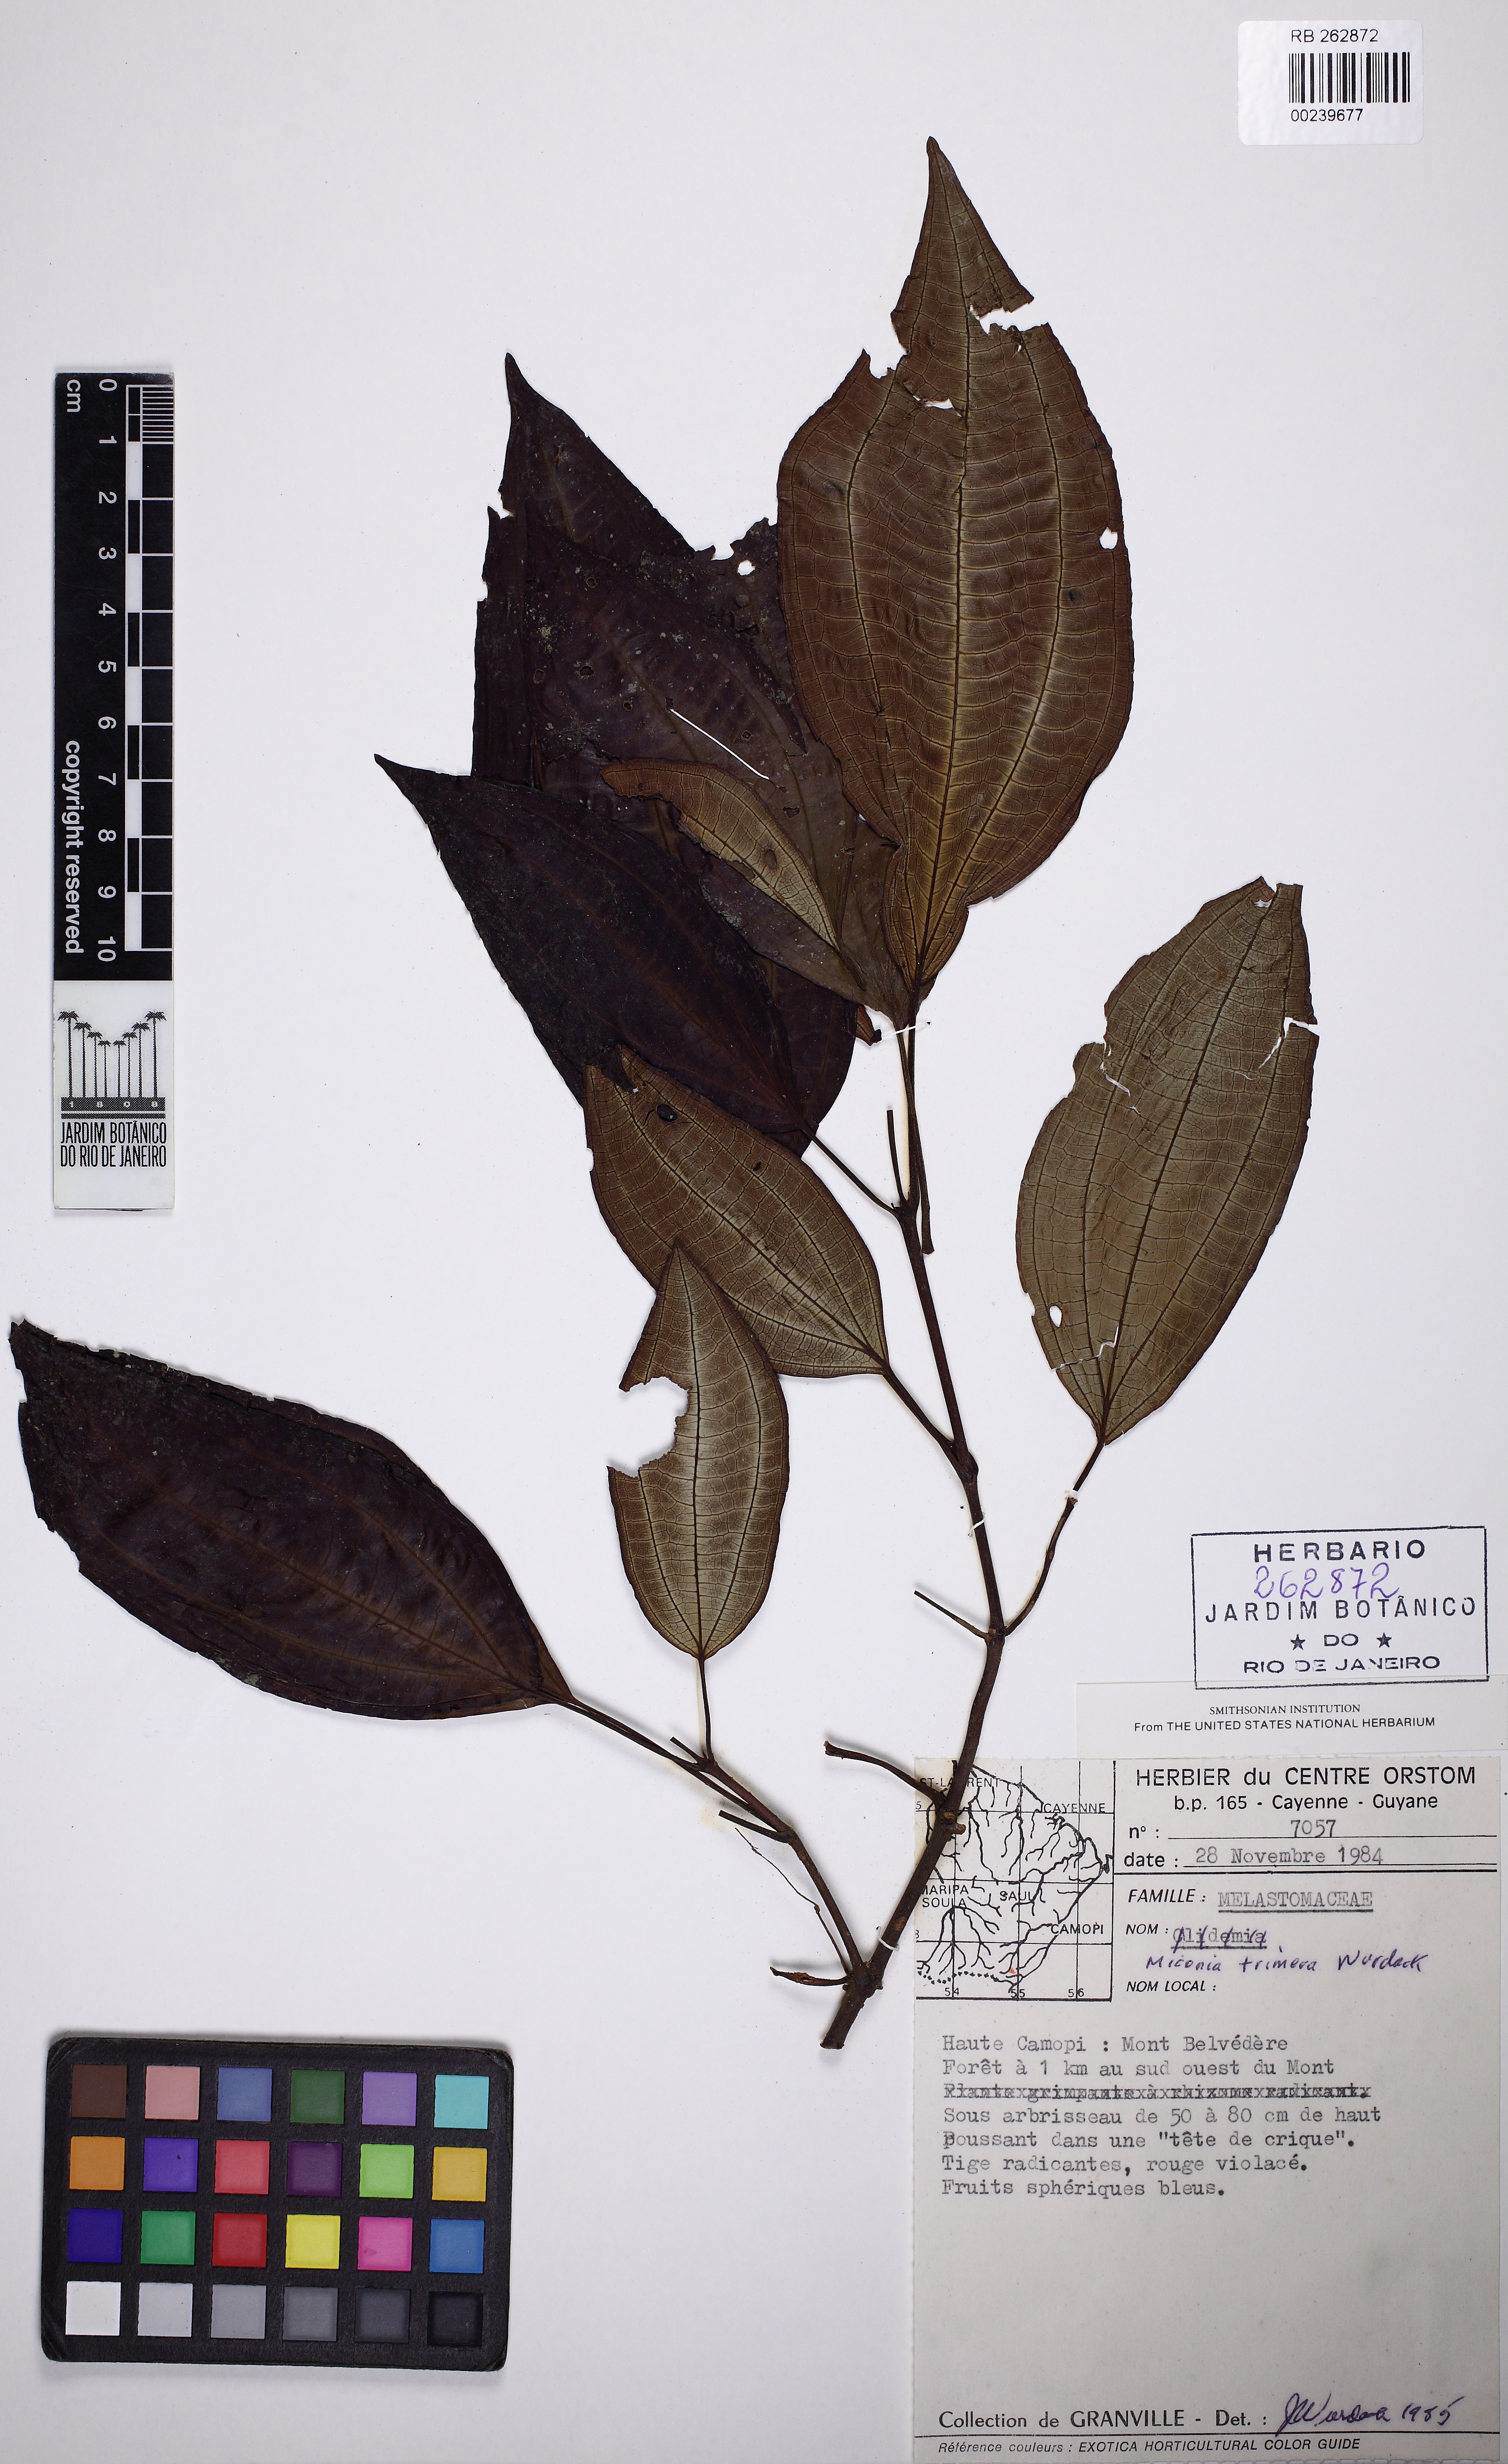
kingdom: Plantae
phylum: Tracheophyta
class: Magnoliopsida
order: Myrtales
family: Melastomataceae
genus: Miconia
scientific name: Miconia trimera
